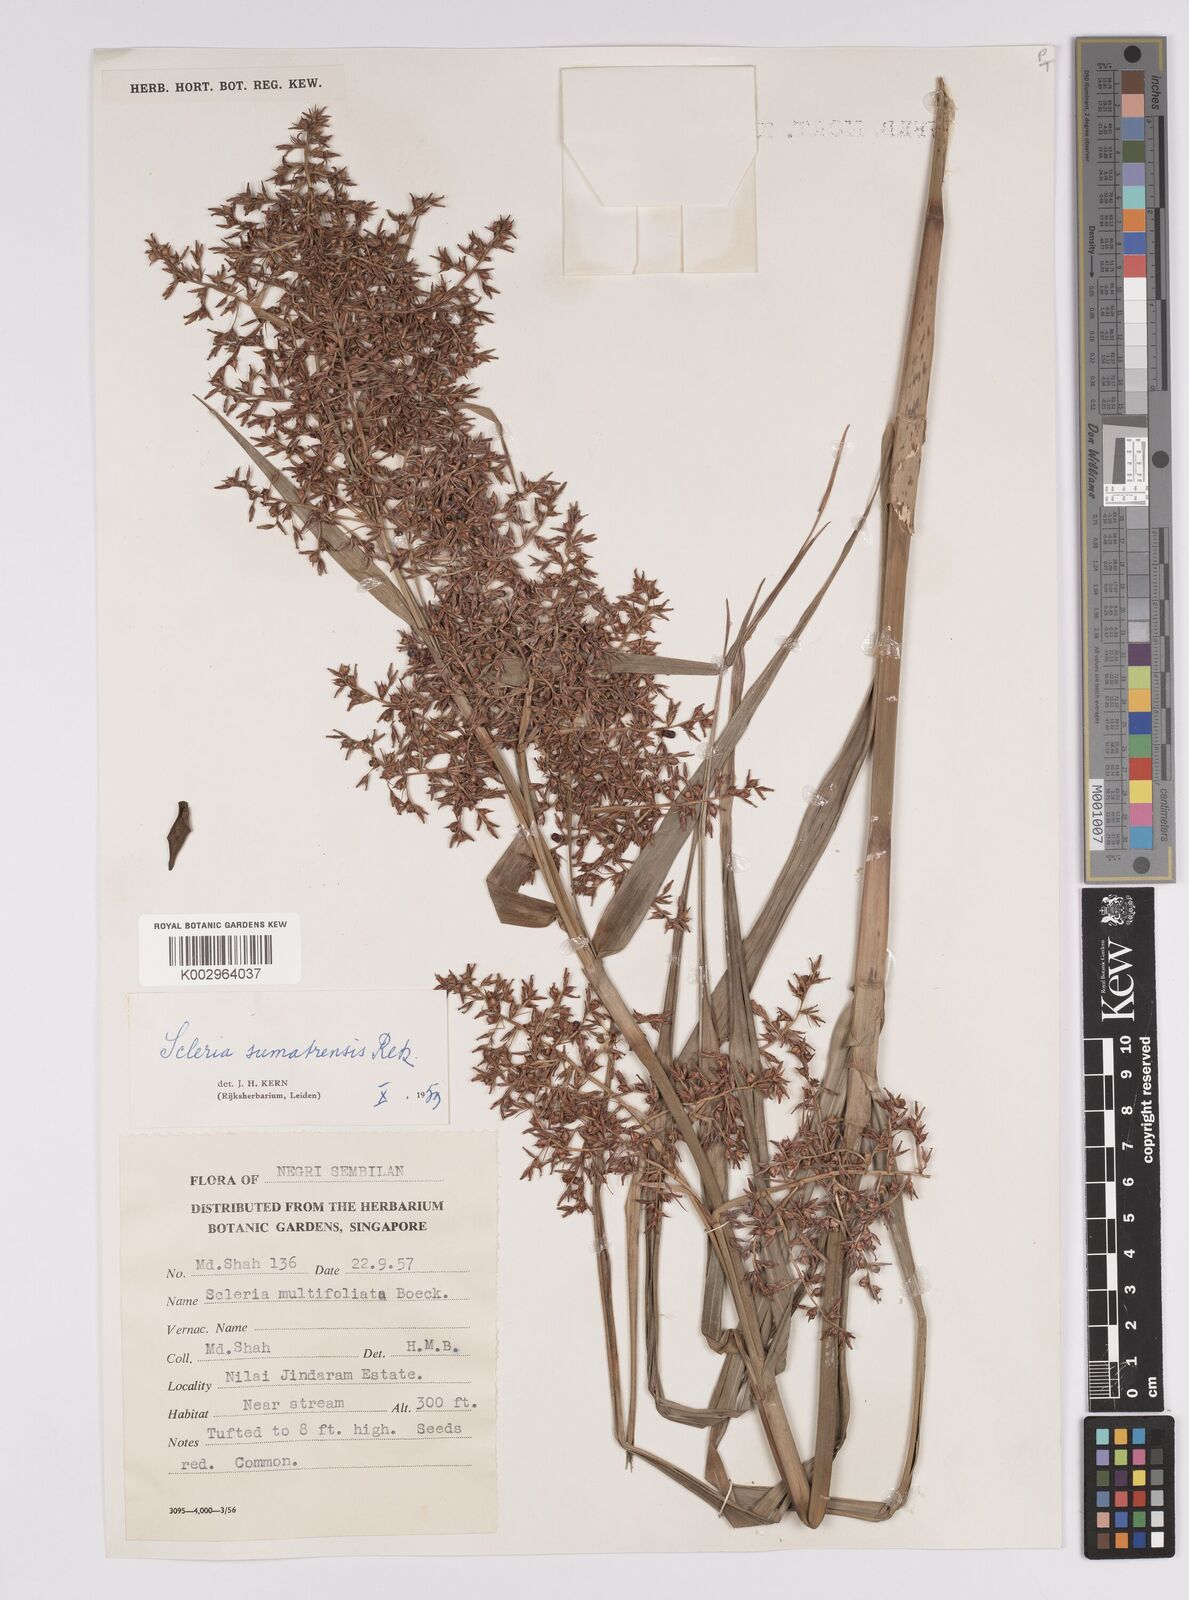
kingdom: Plantae
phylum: Tracheophyta
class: Liliopsida
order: Poales
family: Cyperaceae
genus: Scleria
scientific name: Scleria sumatrensis
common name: Sumatran scleria
